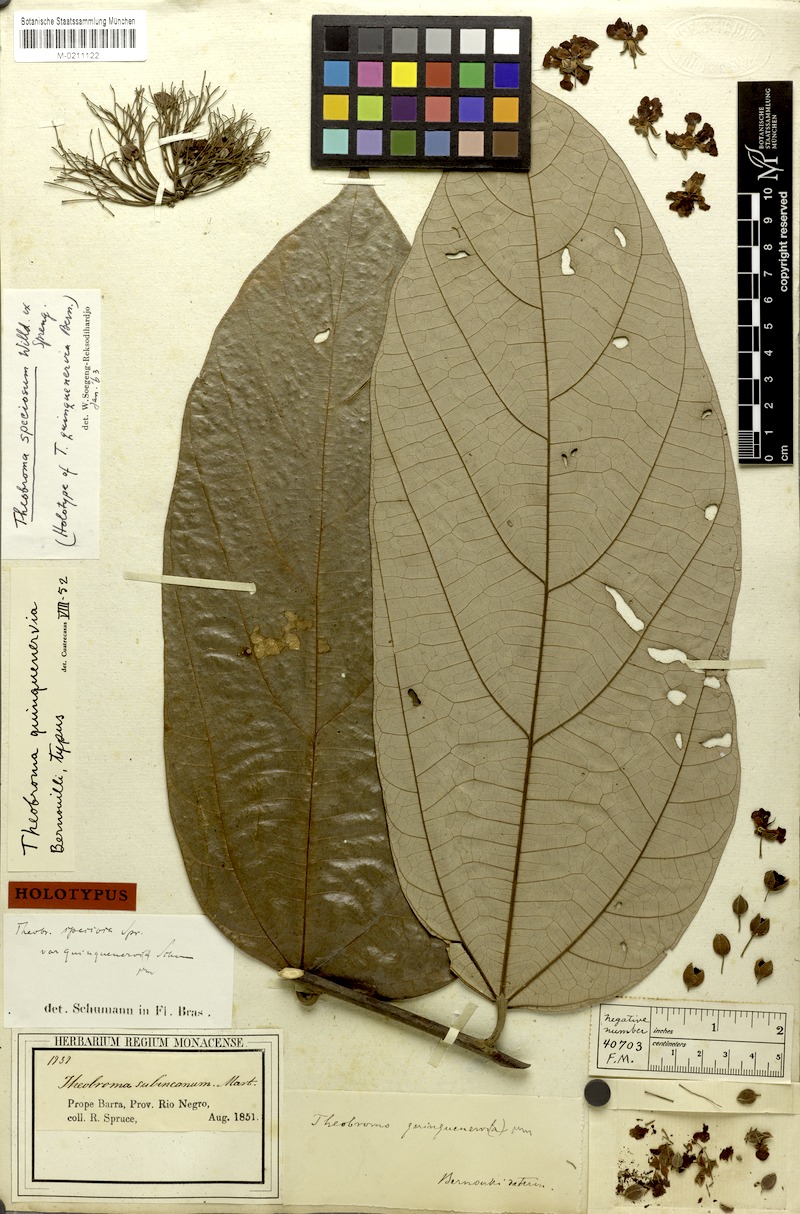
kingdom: Plantae
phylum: Tracheophyta
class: Magnoliopsida
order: Malvales
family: Malvaceae
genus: Theobroma
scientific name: Theobroma speciosum
